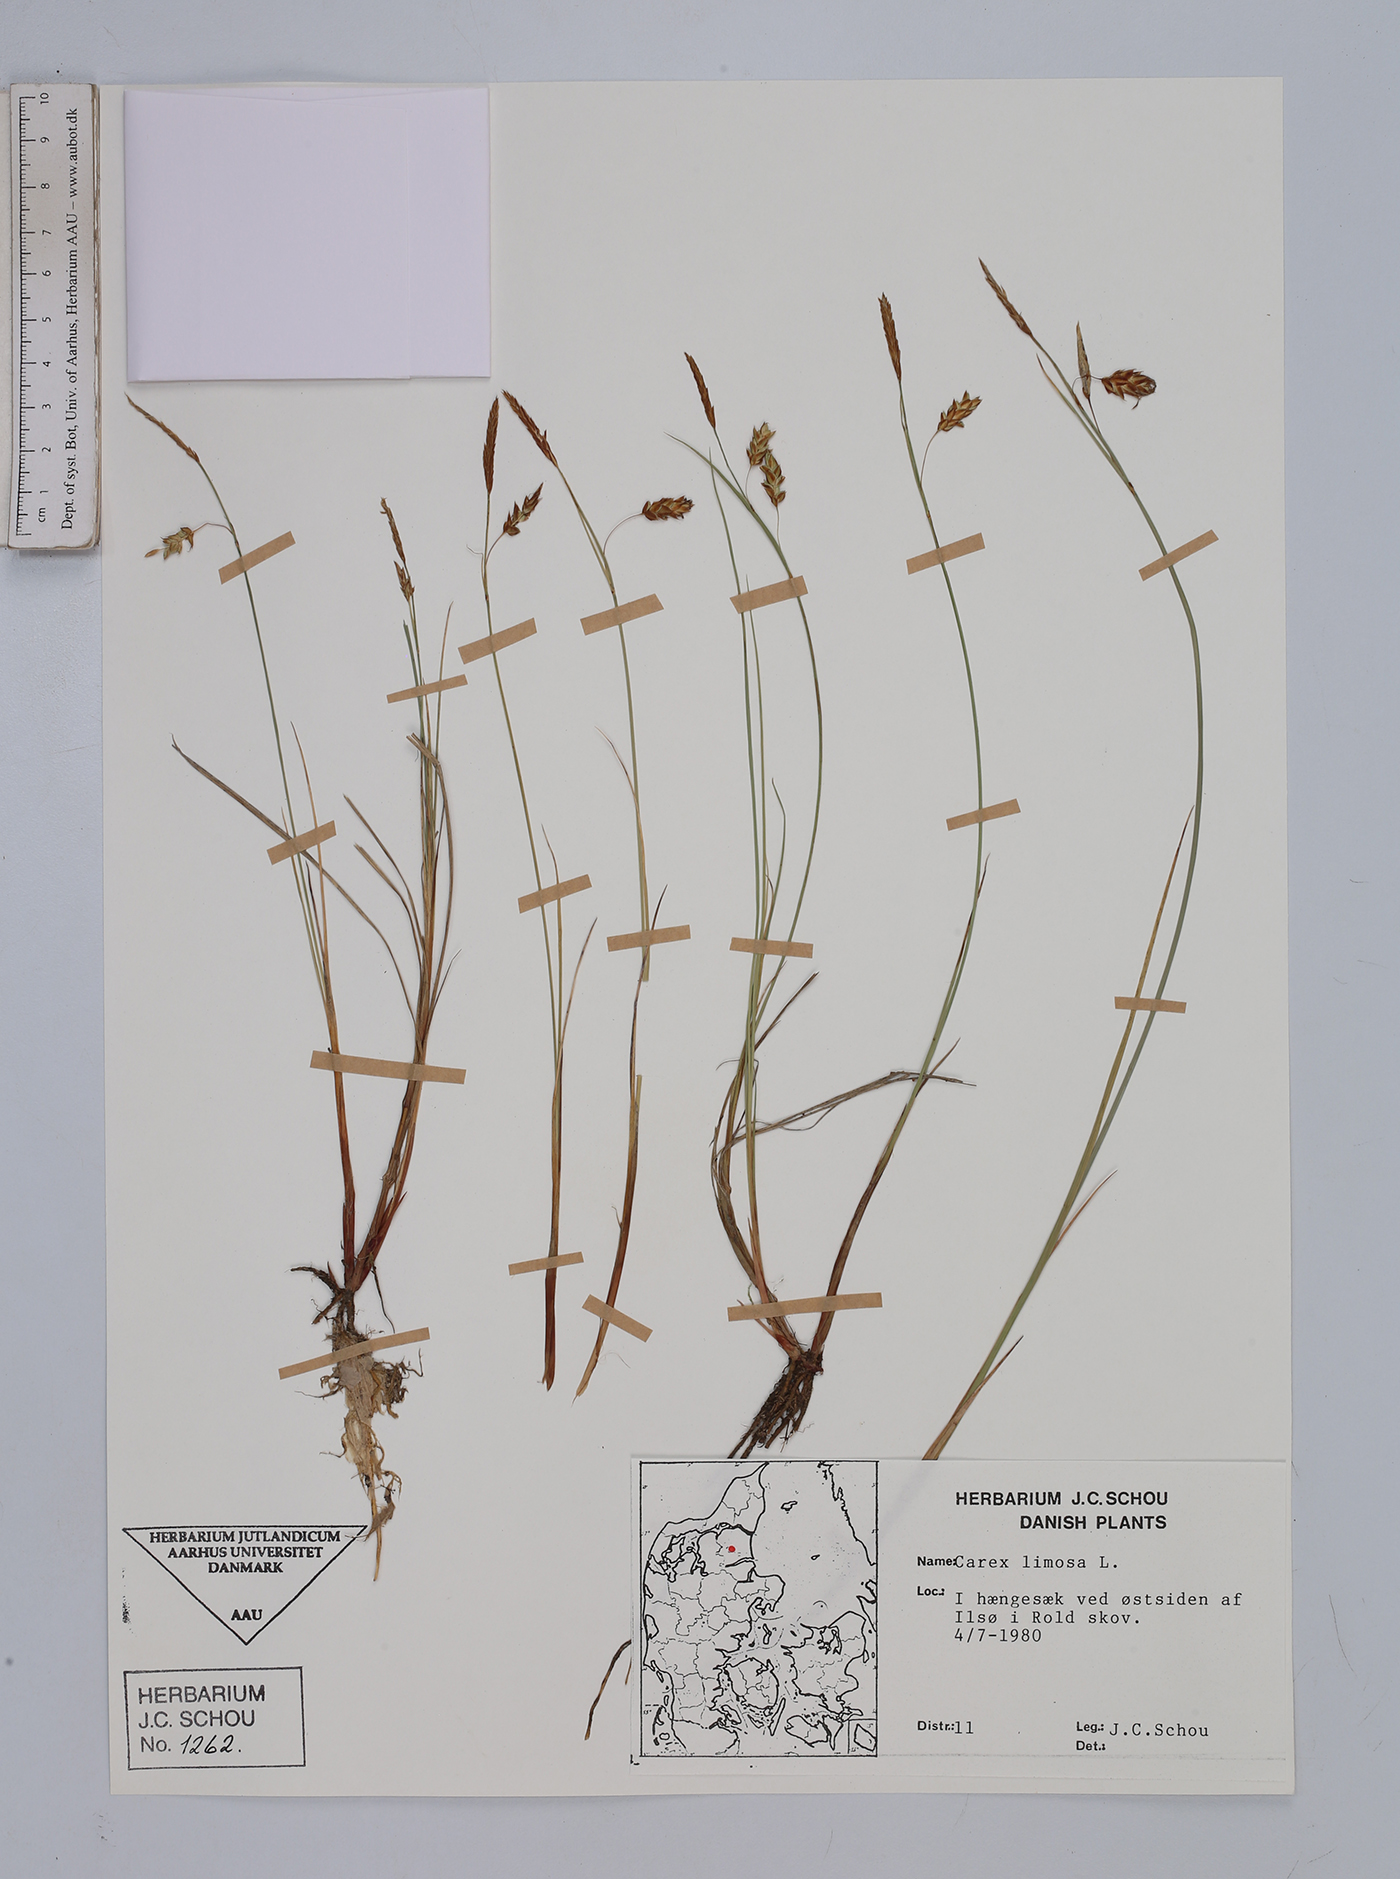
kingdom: Plantae
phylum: Tracheophyta
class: Liliopsida
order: Poales
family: Cyperaceae
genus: Carex
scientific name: Carex limosa
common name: Bog sedge
